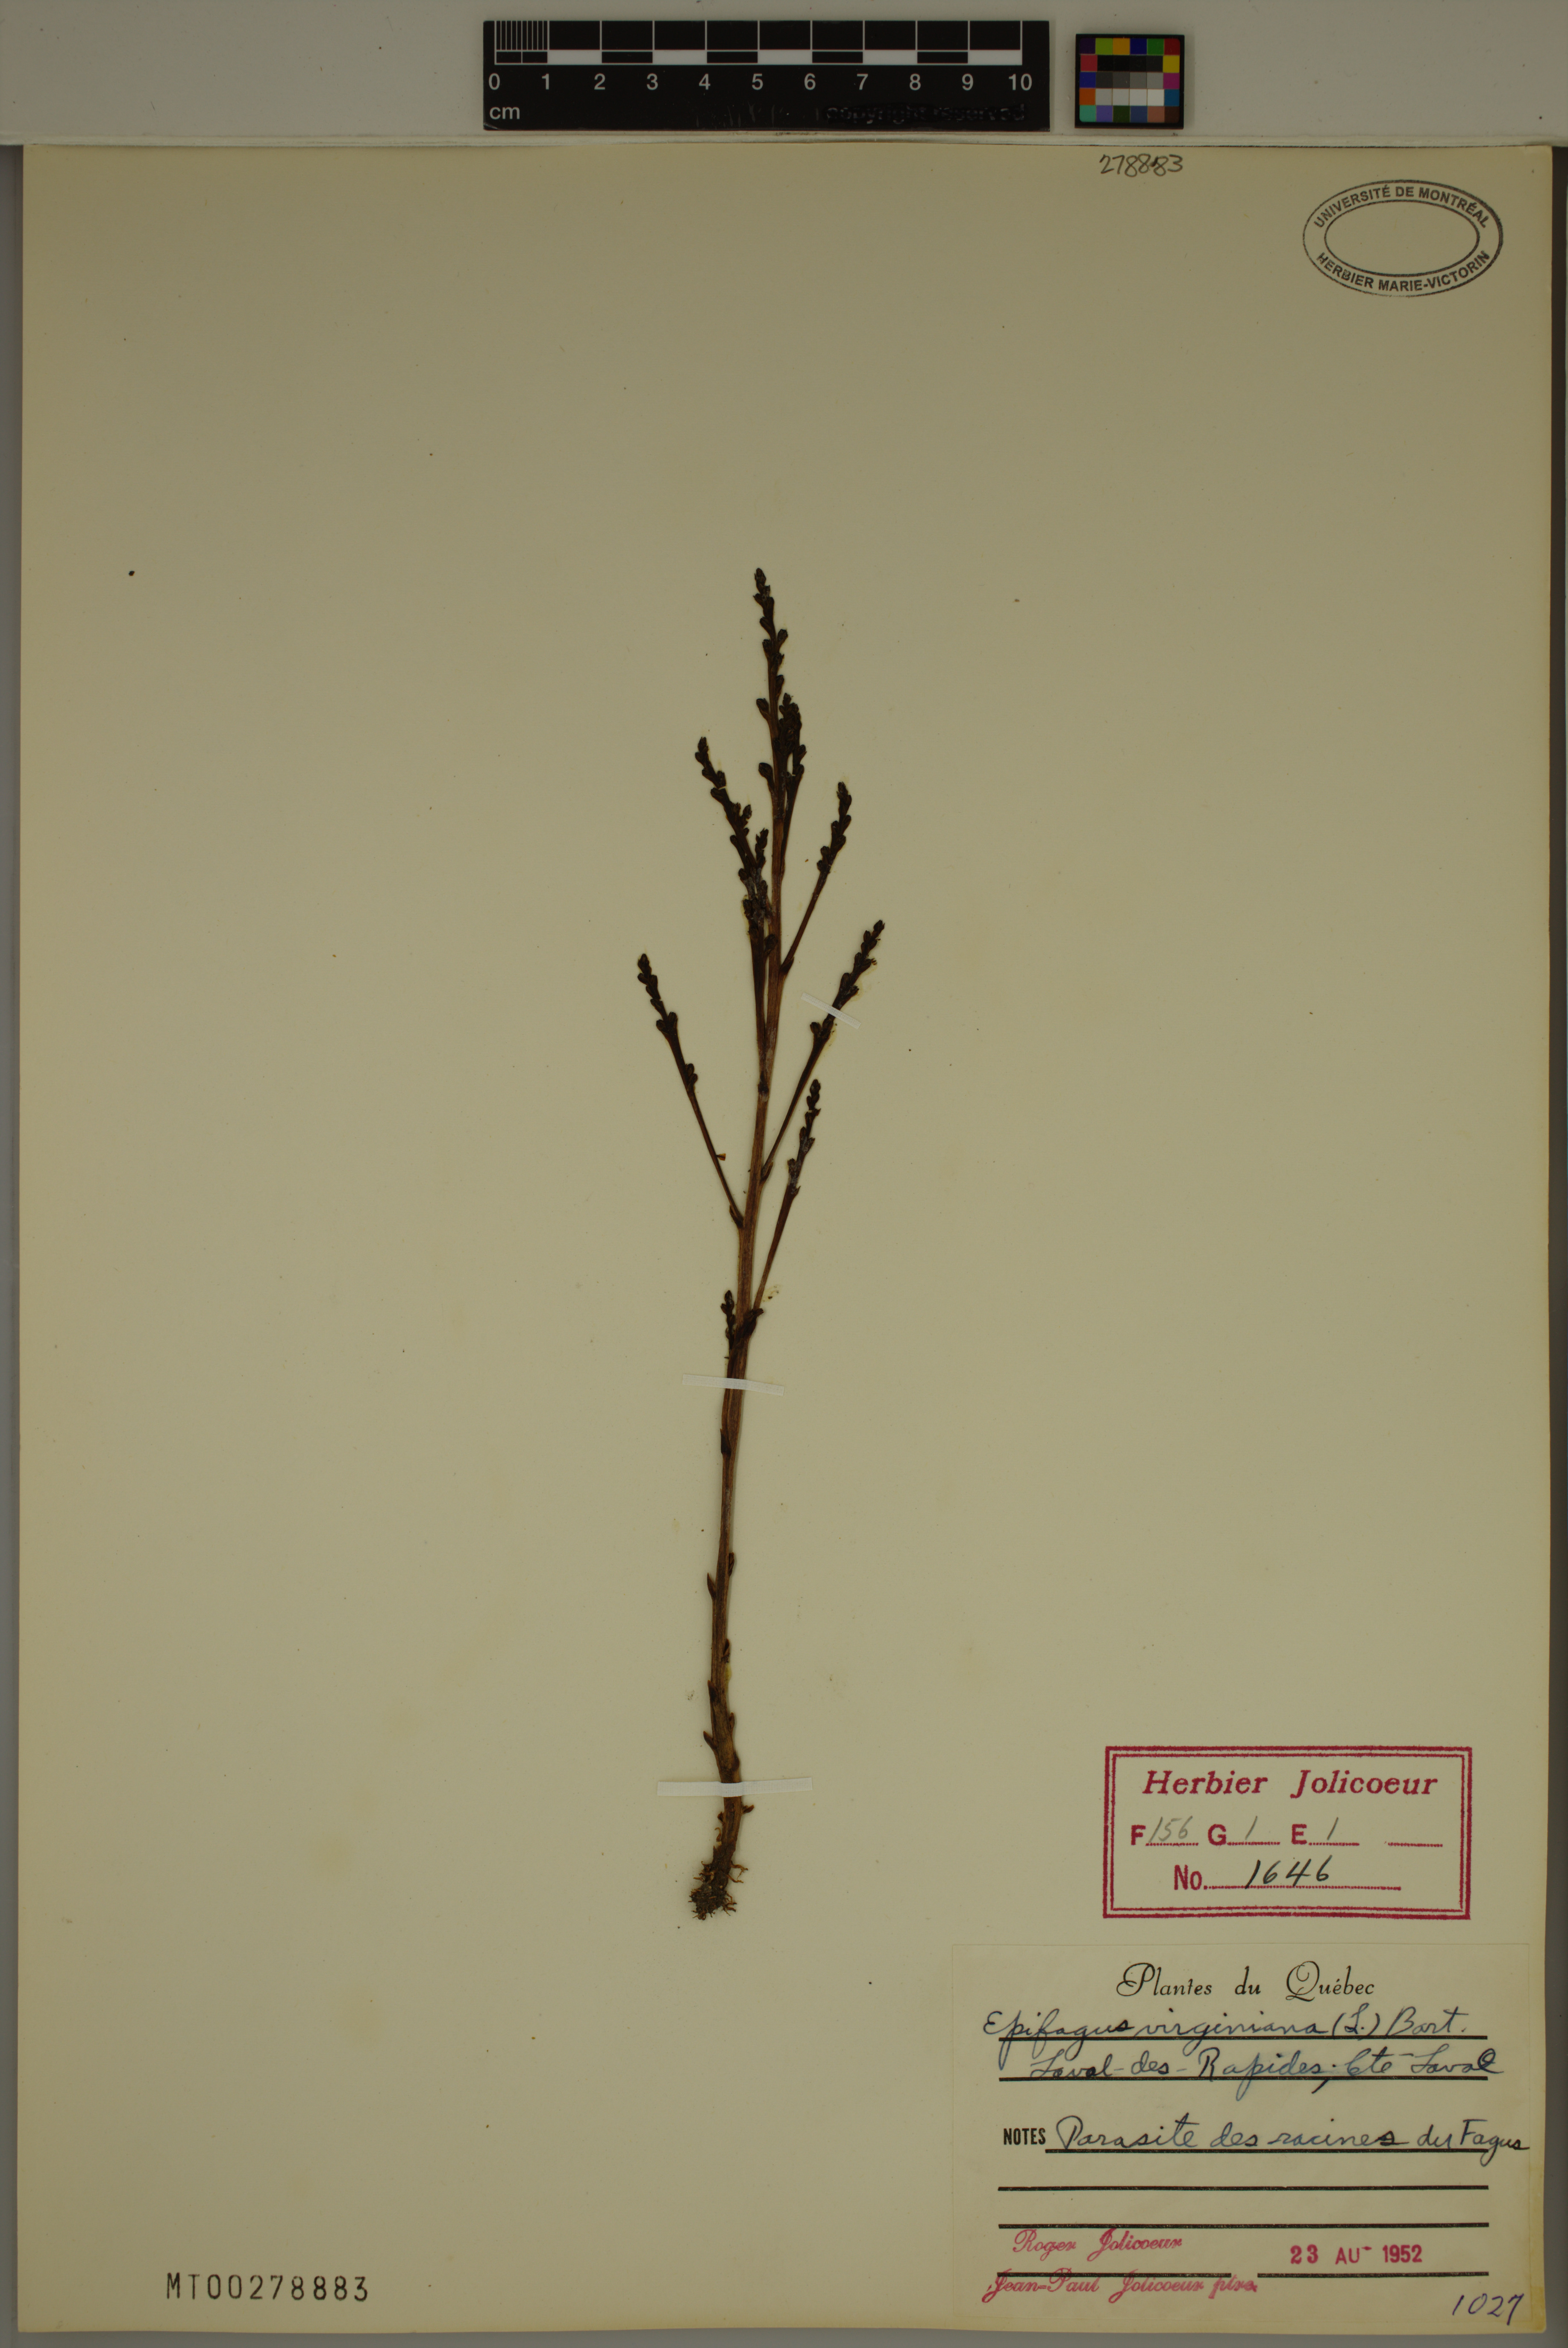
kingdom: Plantae
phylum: Tracheophyta
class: Magnoliopsida
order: Lamiales
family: Orobanchaceae
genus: Epifagus
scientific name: Epifagus virginiana
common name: Beechdrops
